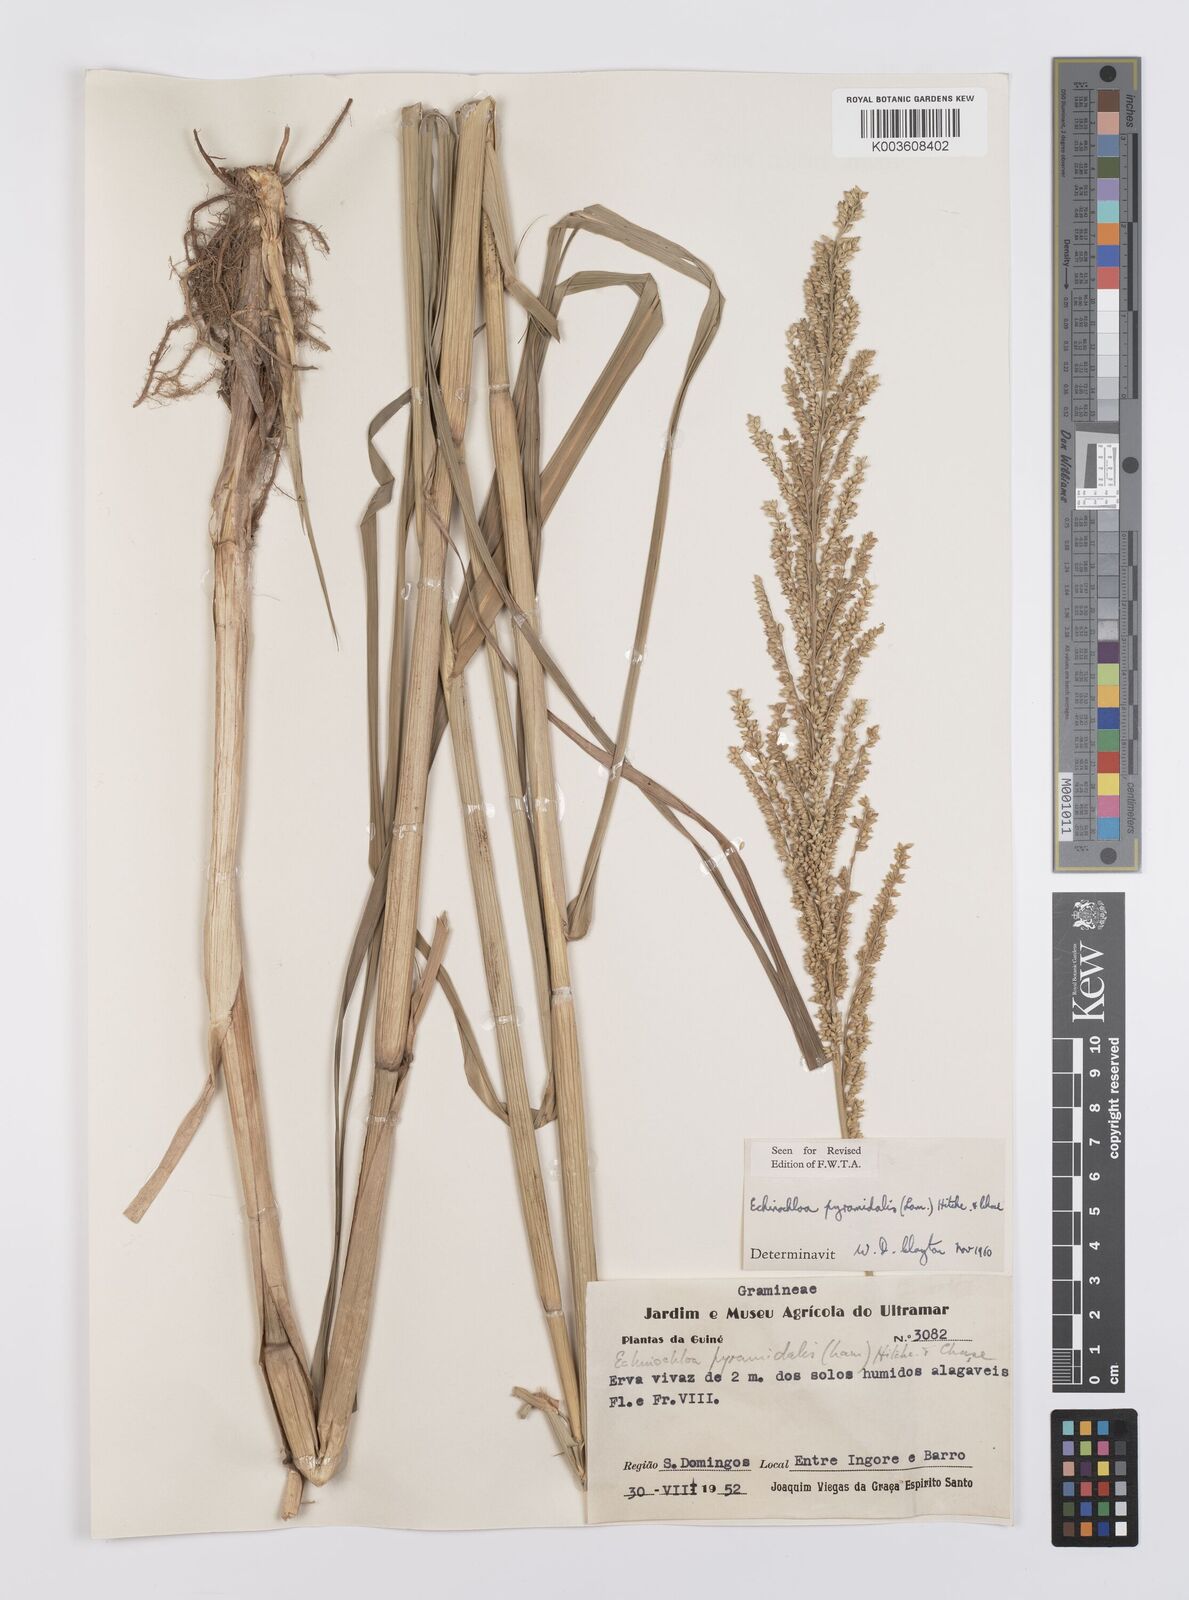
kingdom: Plantae
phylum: Tracheophyta
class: Liliopsida
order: Poales
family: Poaceae
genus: Echinochloa
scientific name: Echinochloa pyramidalis
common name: Antelope grass
